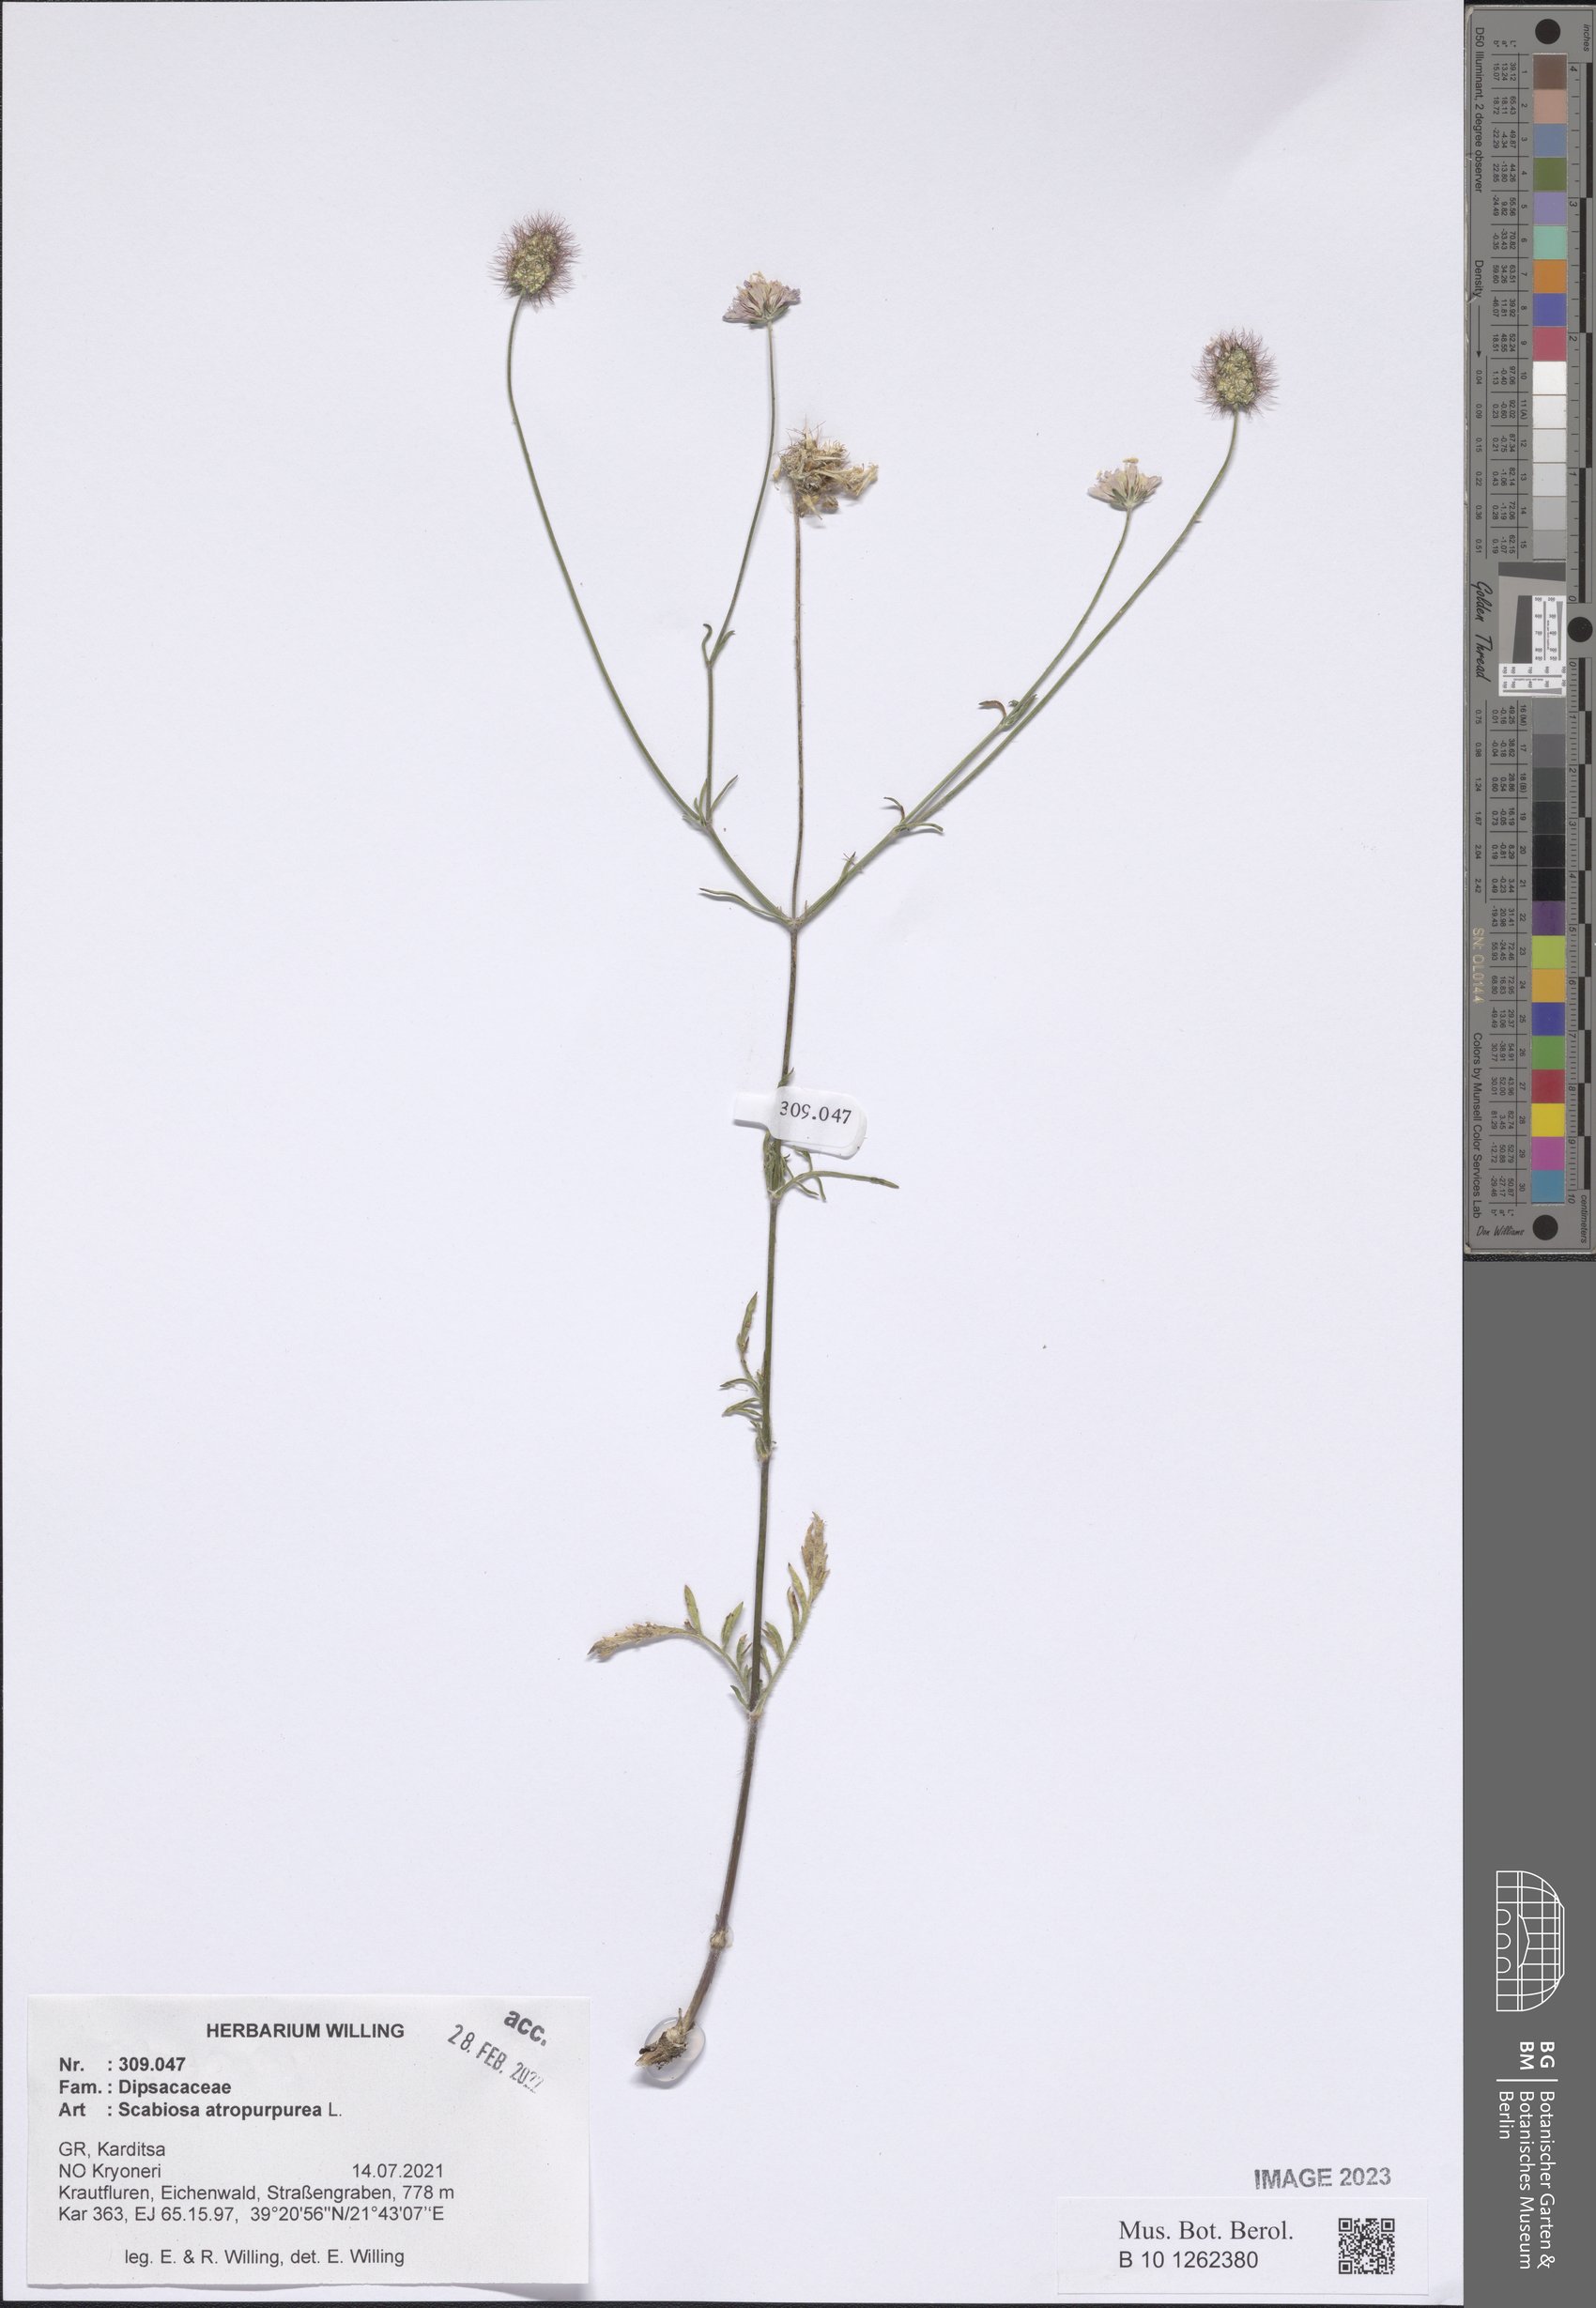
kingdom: Plantae
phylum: Tracheophyta
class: Magnoliopsida
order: Dipsacales
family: Caprifoliaceae
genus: Sixalix
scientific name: Sixalix atropurpurea
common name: Sweet scabious
